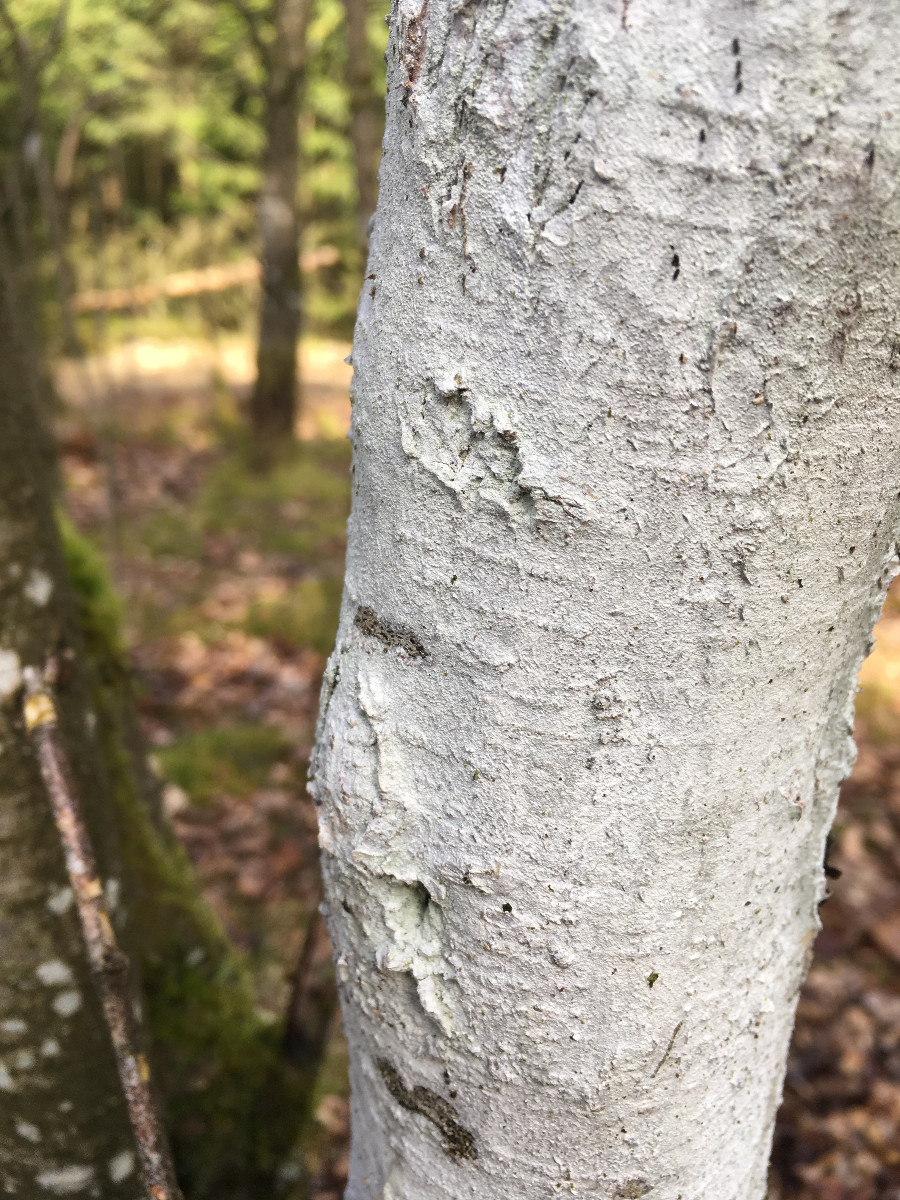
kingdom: Fungi
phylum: Basidiomycota
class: Agaricomycetes
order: Corticiales
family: Corticiaceae
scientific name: Corticiaceae
